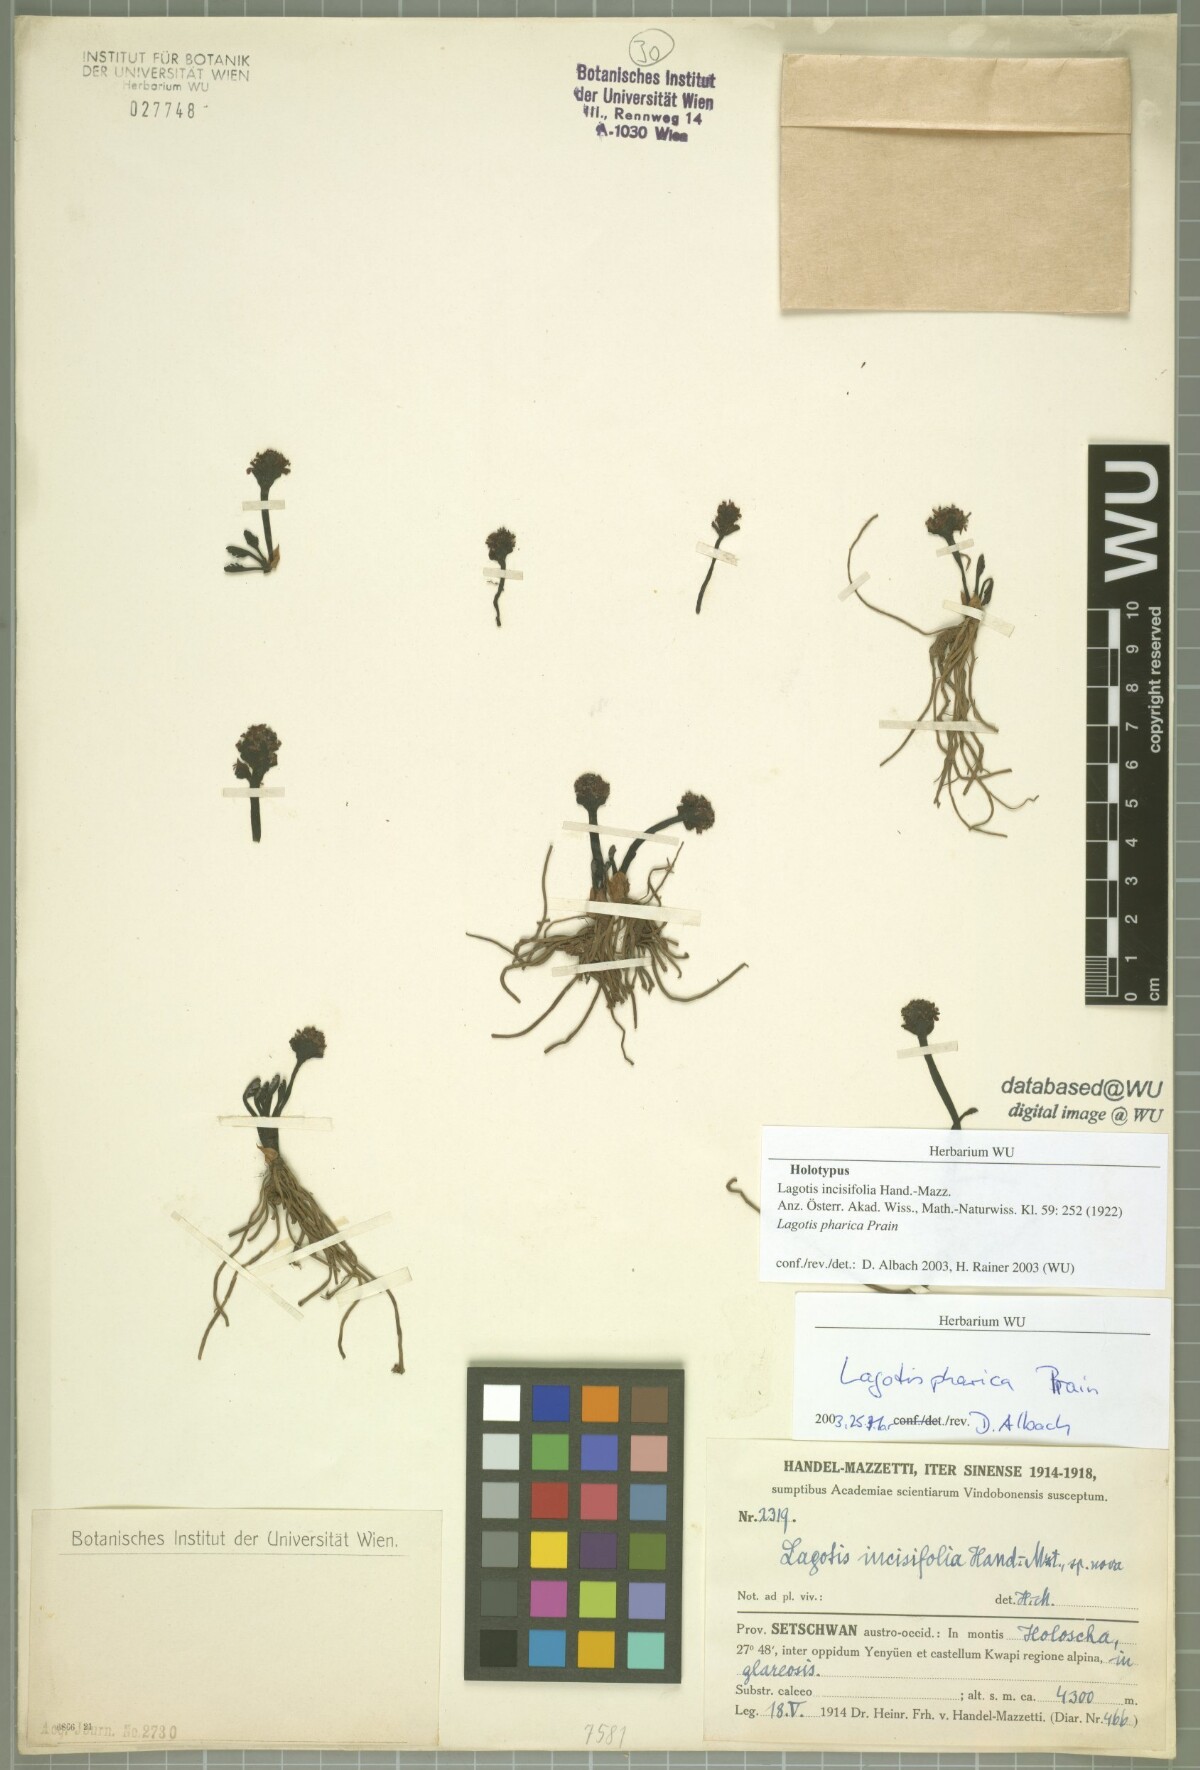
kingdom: Plantae
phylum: Tracheophyta
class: Magnoliopsida
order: Lamiales
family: Plantaginaceae
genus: Lagotis
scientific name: Lagotis pharica
